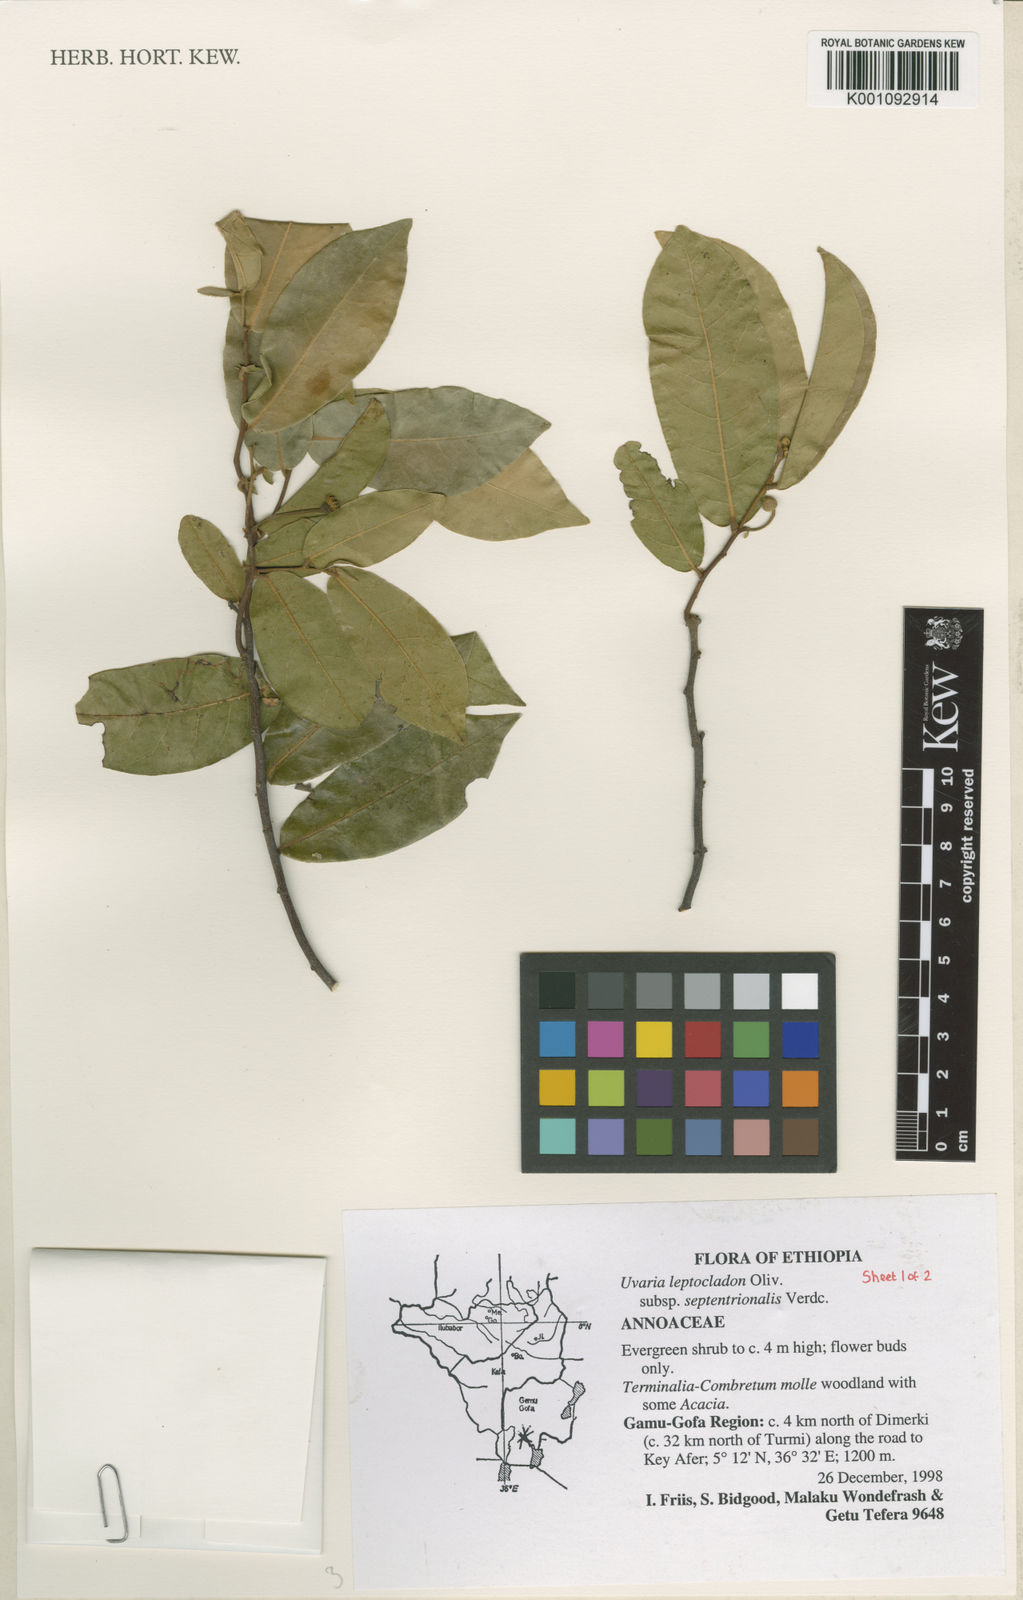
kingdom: Plantae
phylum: Tracheophyta
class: Magnoliopsida
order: Magnoliales
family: Annonaceae
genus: Uvaria
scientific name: Uvaria leptocladon
